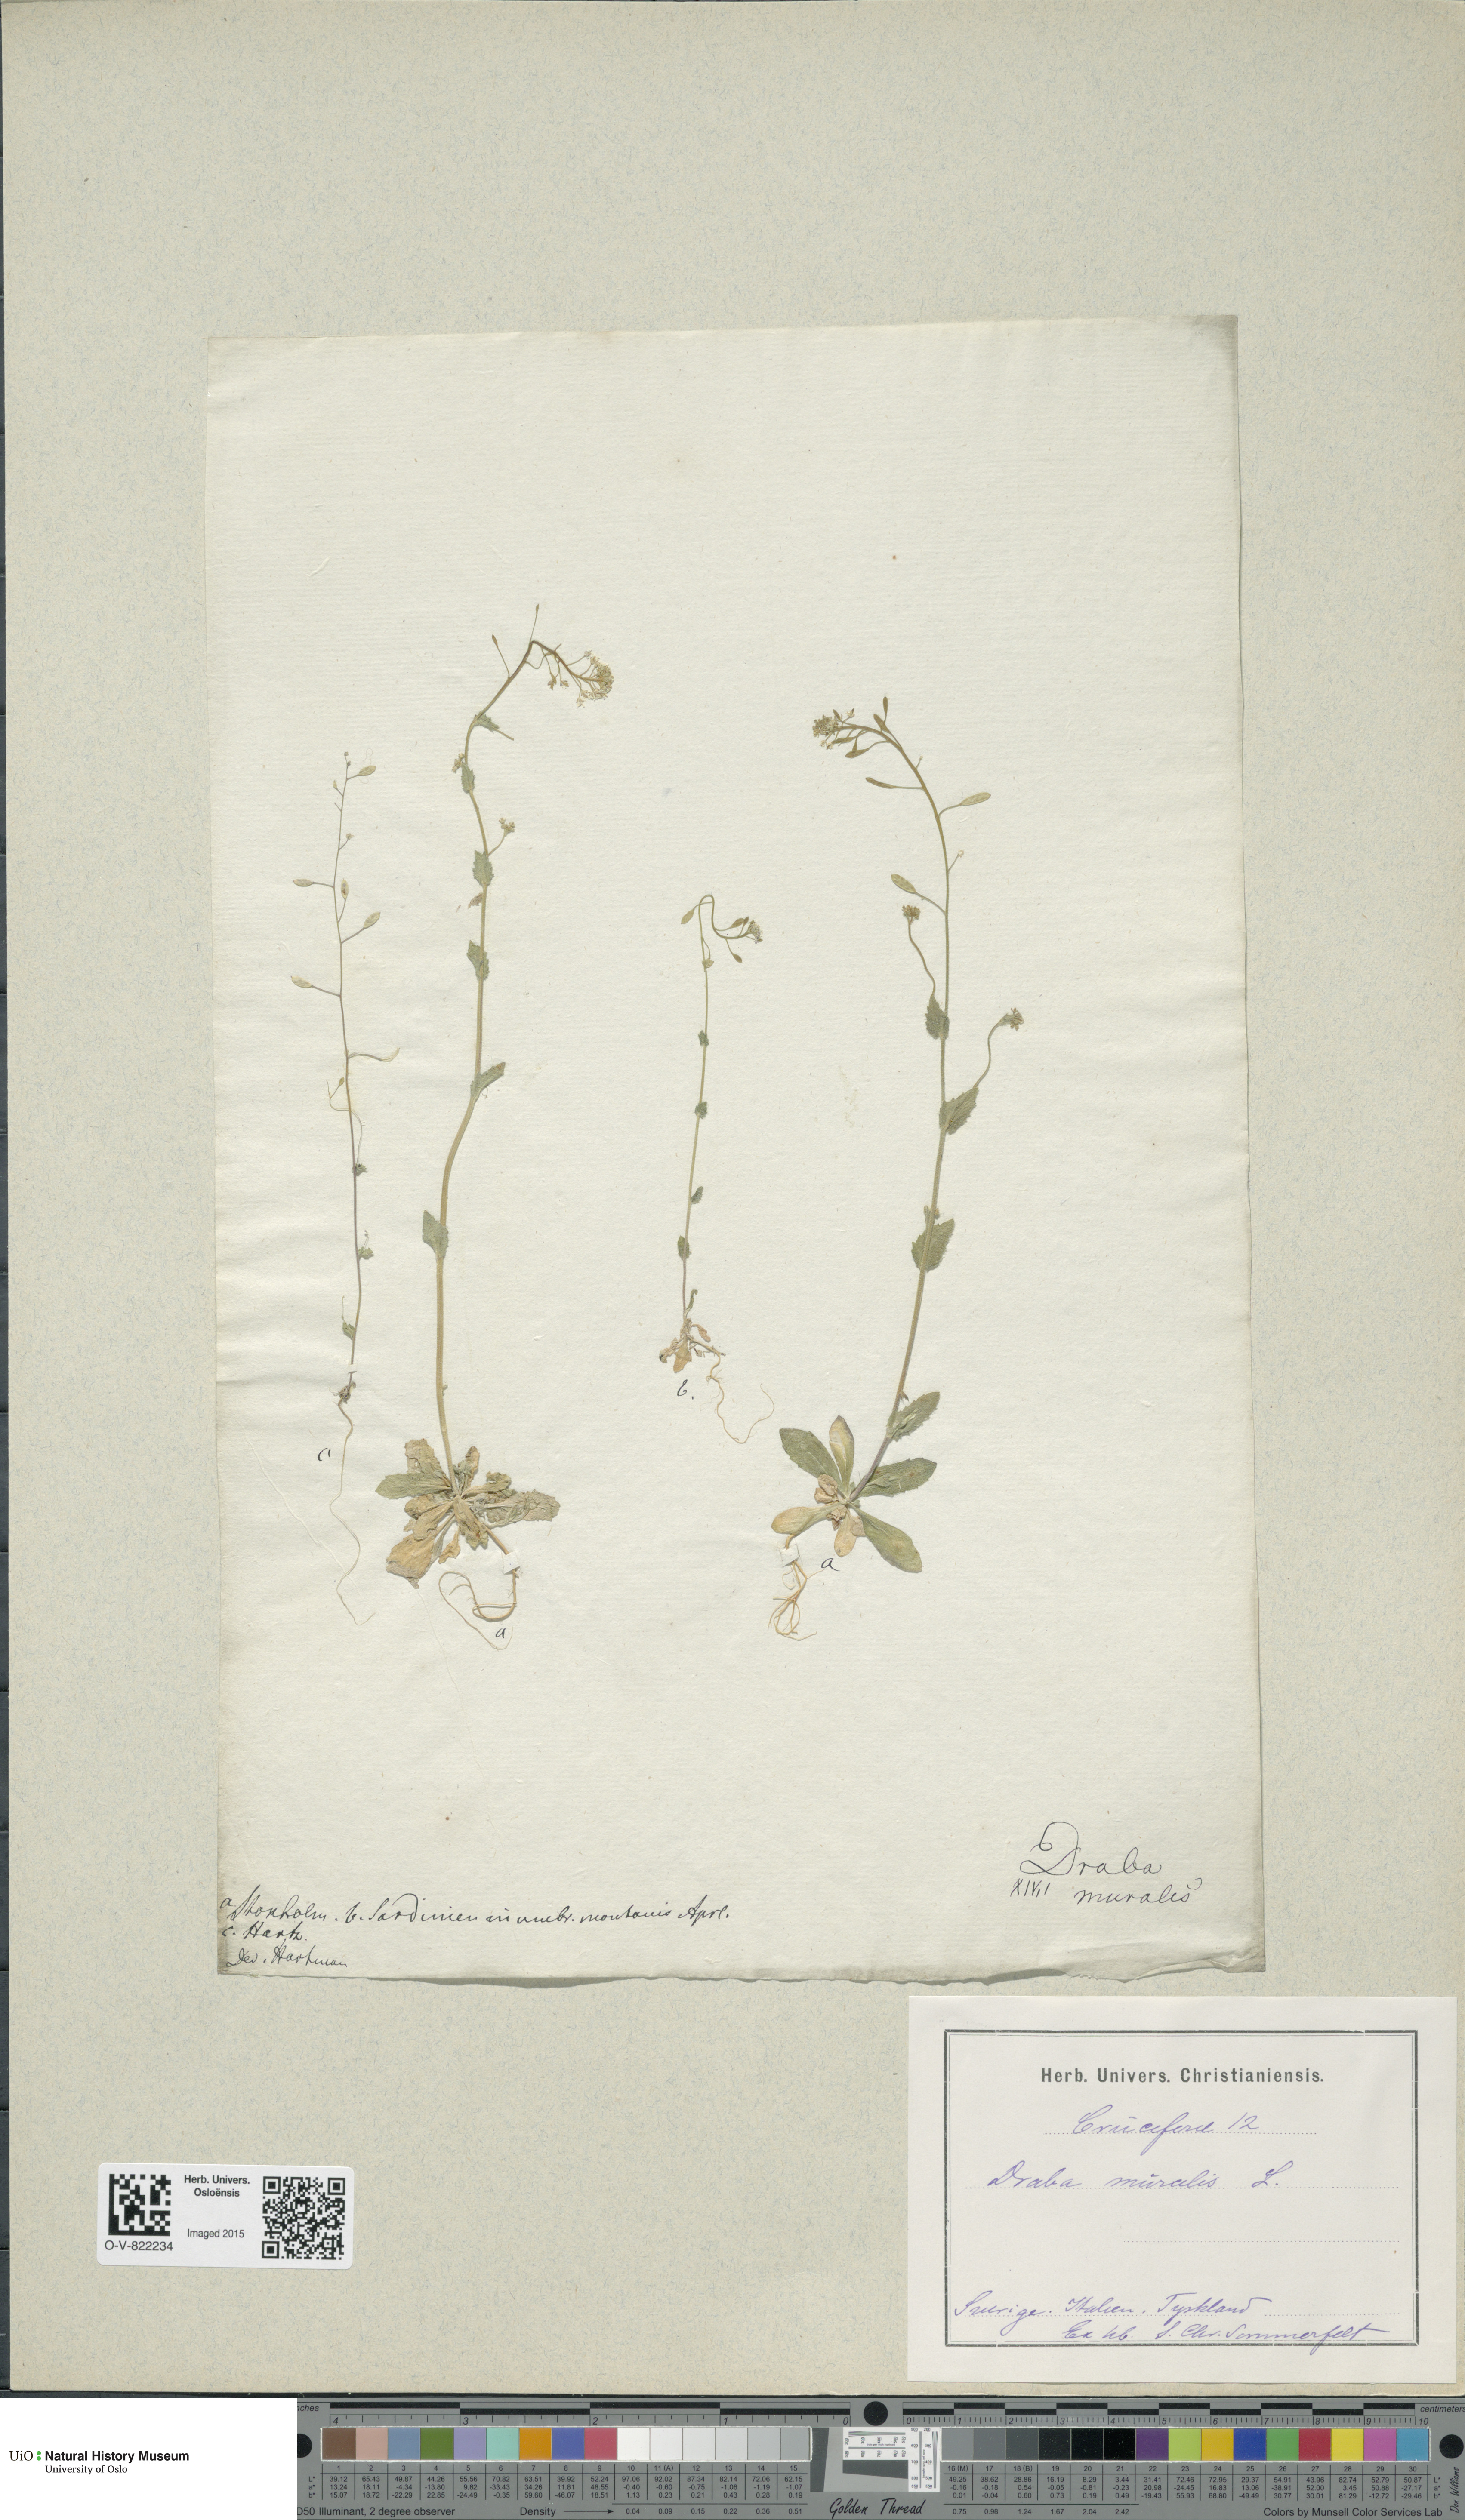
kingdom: Plantae
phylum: Tracheophyta
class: Magnoliopsida
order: Brassicales
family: Brassicaceae
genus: Drabella
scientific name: Drabella muralis
